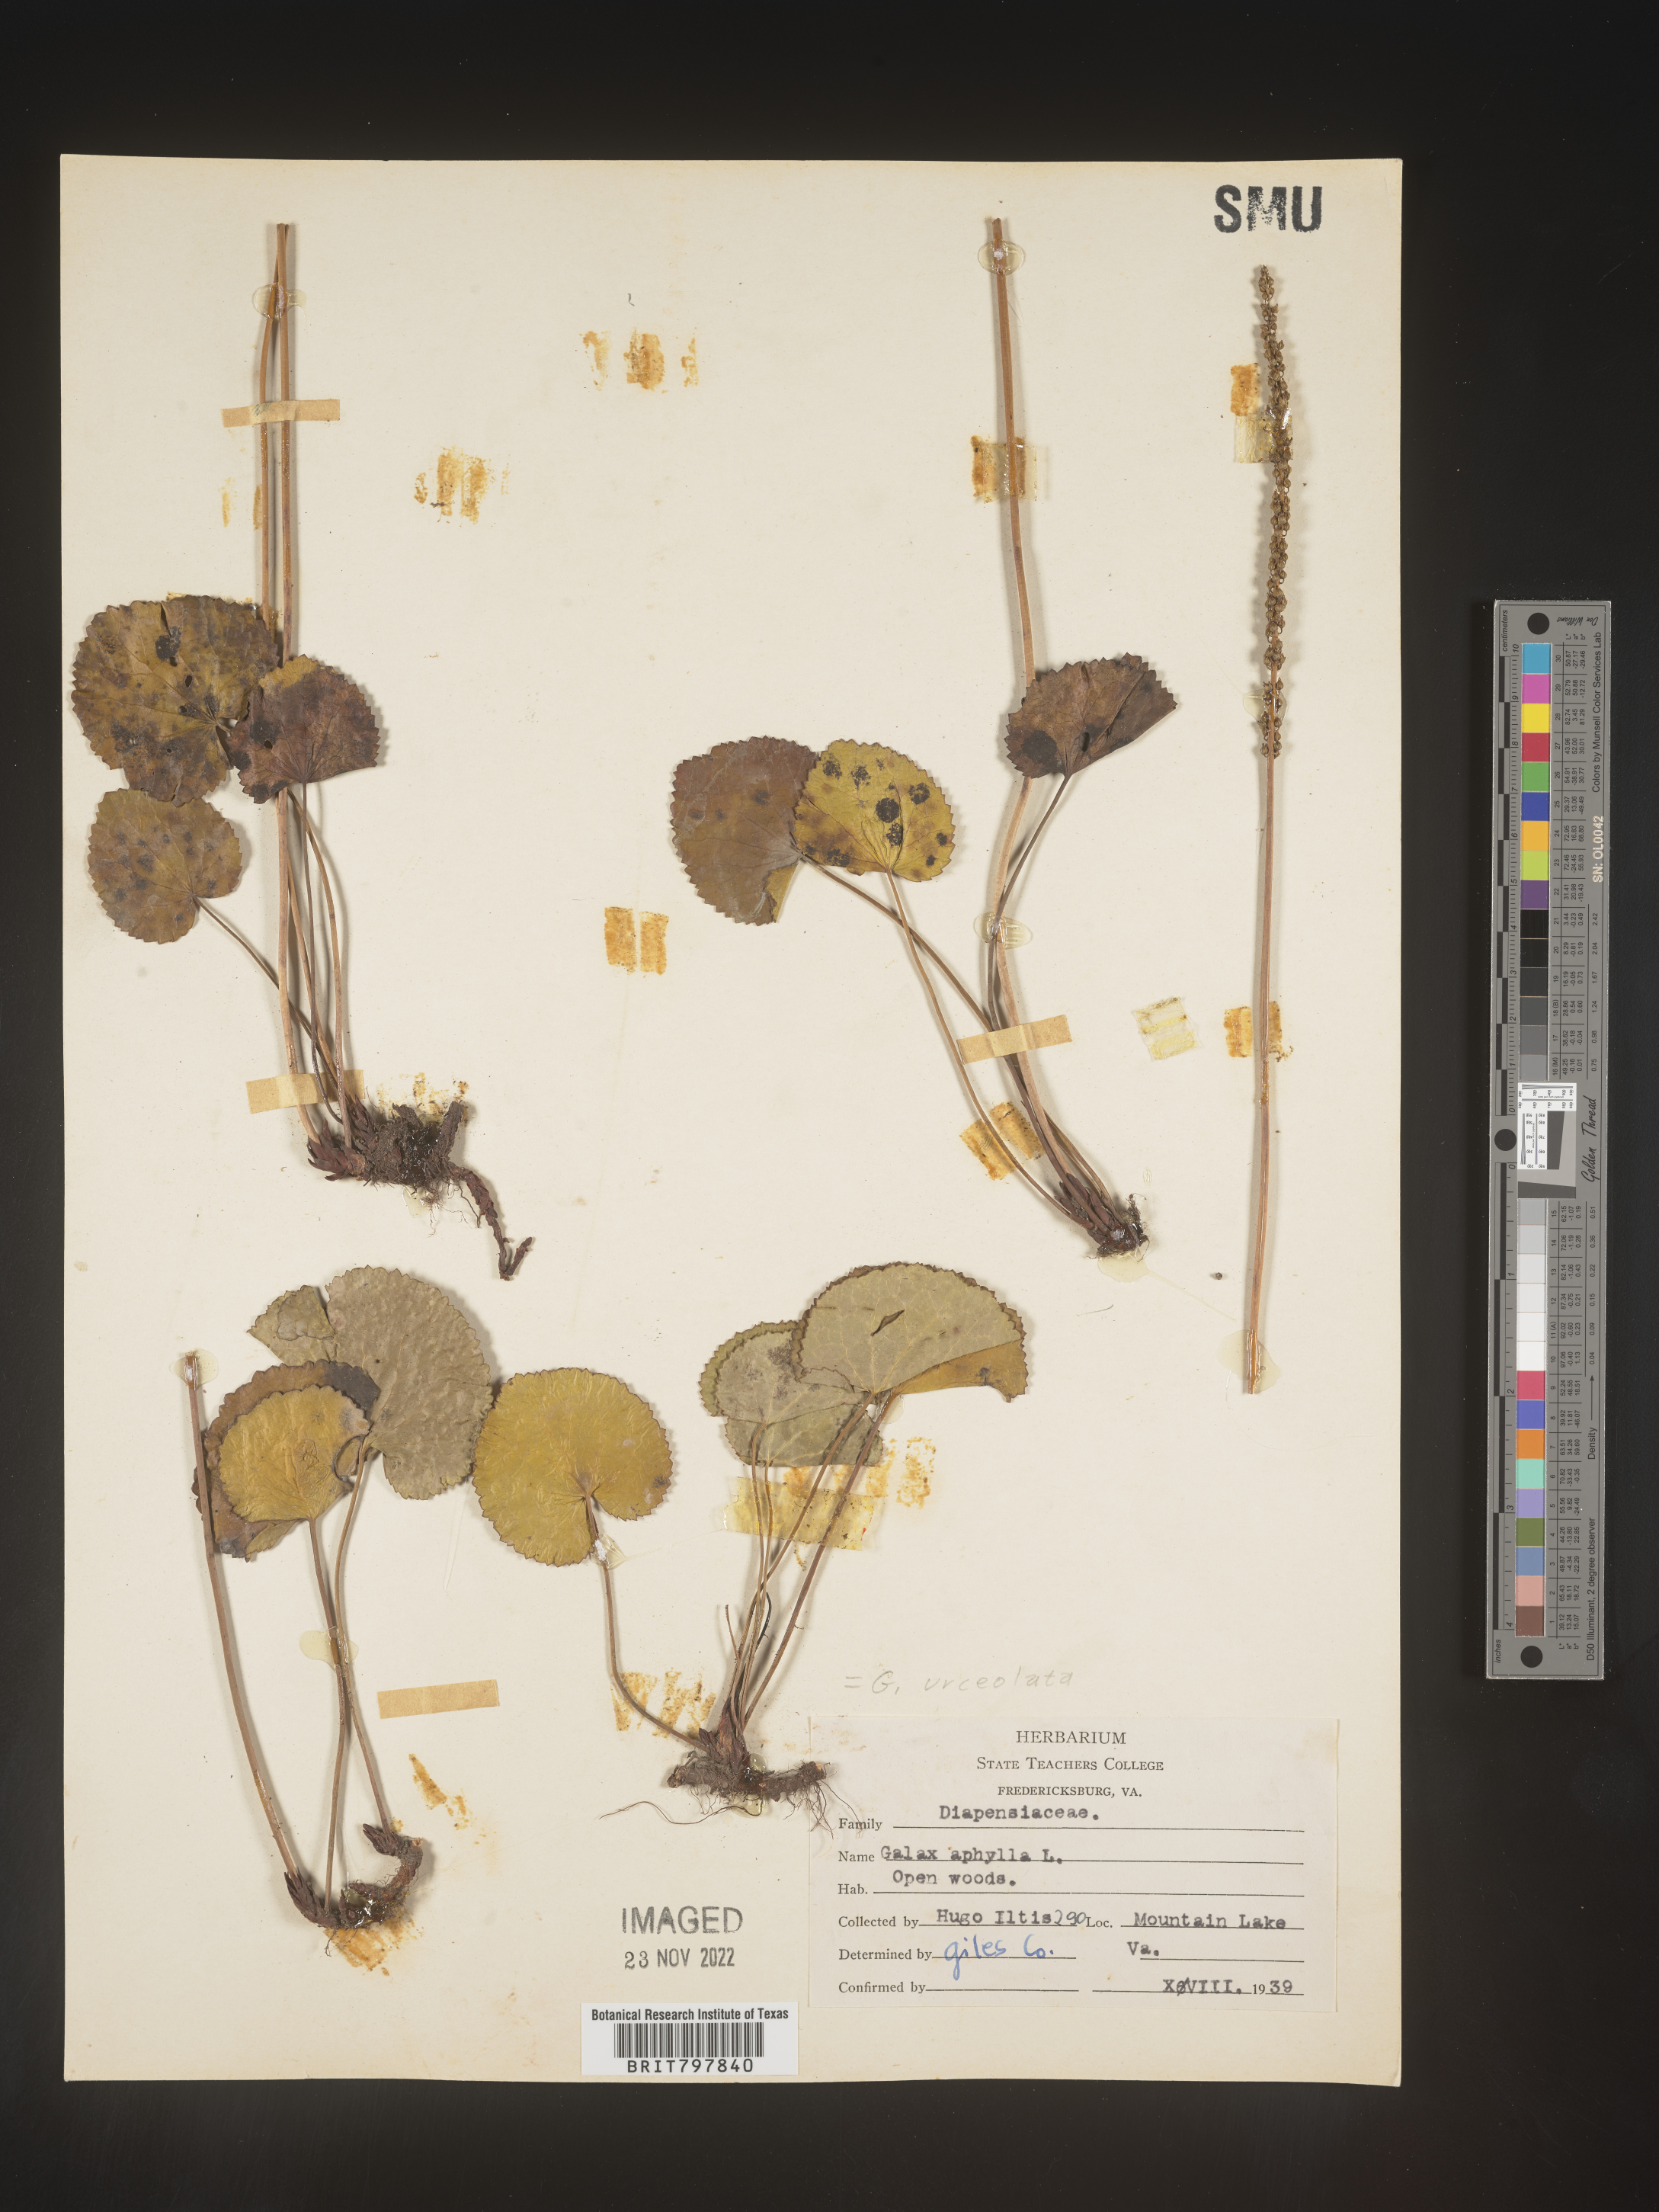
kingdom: Plantae
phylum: Tracheophyta
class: Magnoliopsida
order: Ericales
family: Diapensiaceae
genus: Galax
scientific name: Galax
